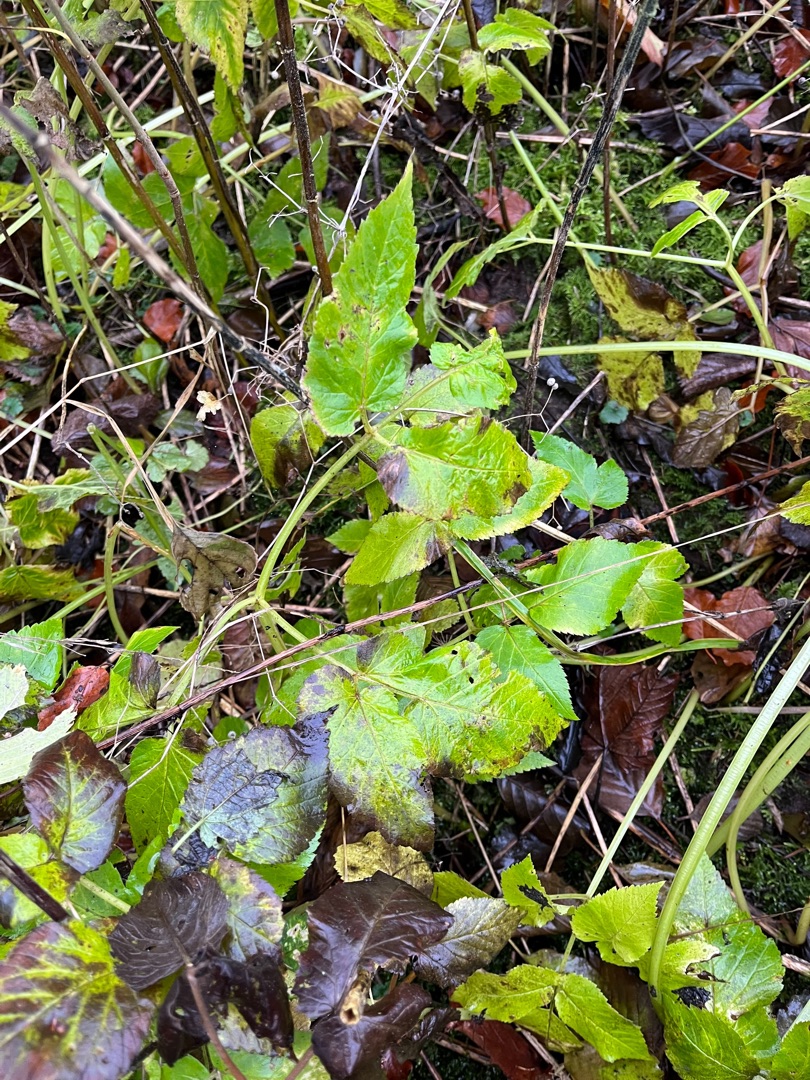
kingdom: Plantae
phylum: Tracheophyta
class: Magnoliopsida
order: Apiales
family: Apiaceae
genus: Aegopodium
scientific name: Aegopodium podagraria
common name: Skvalderkål
